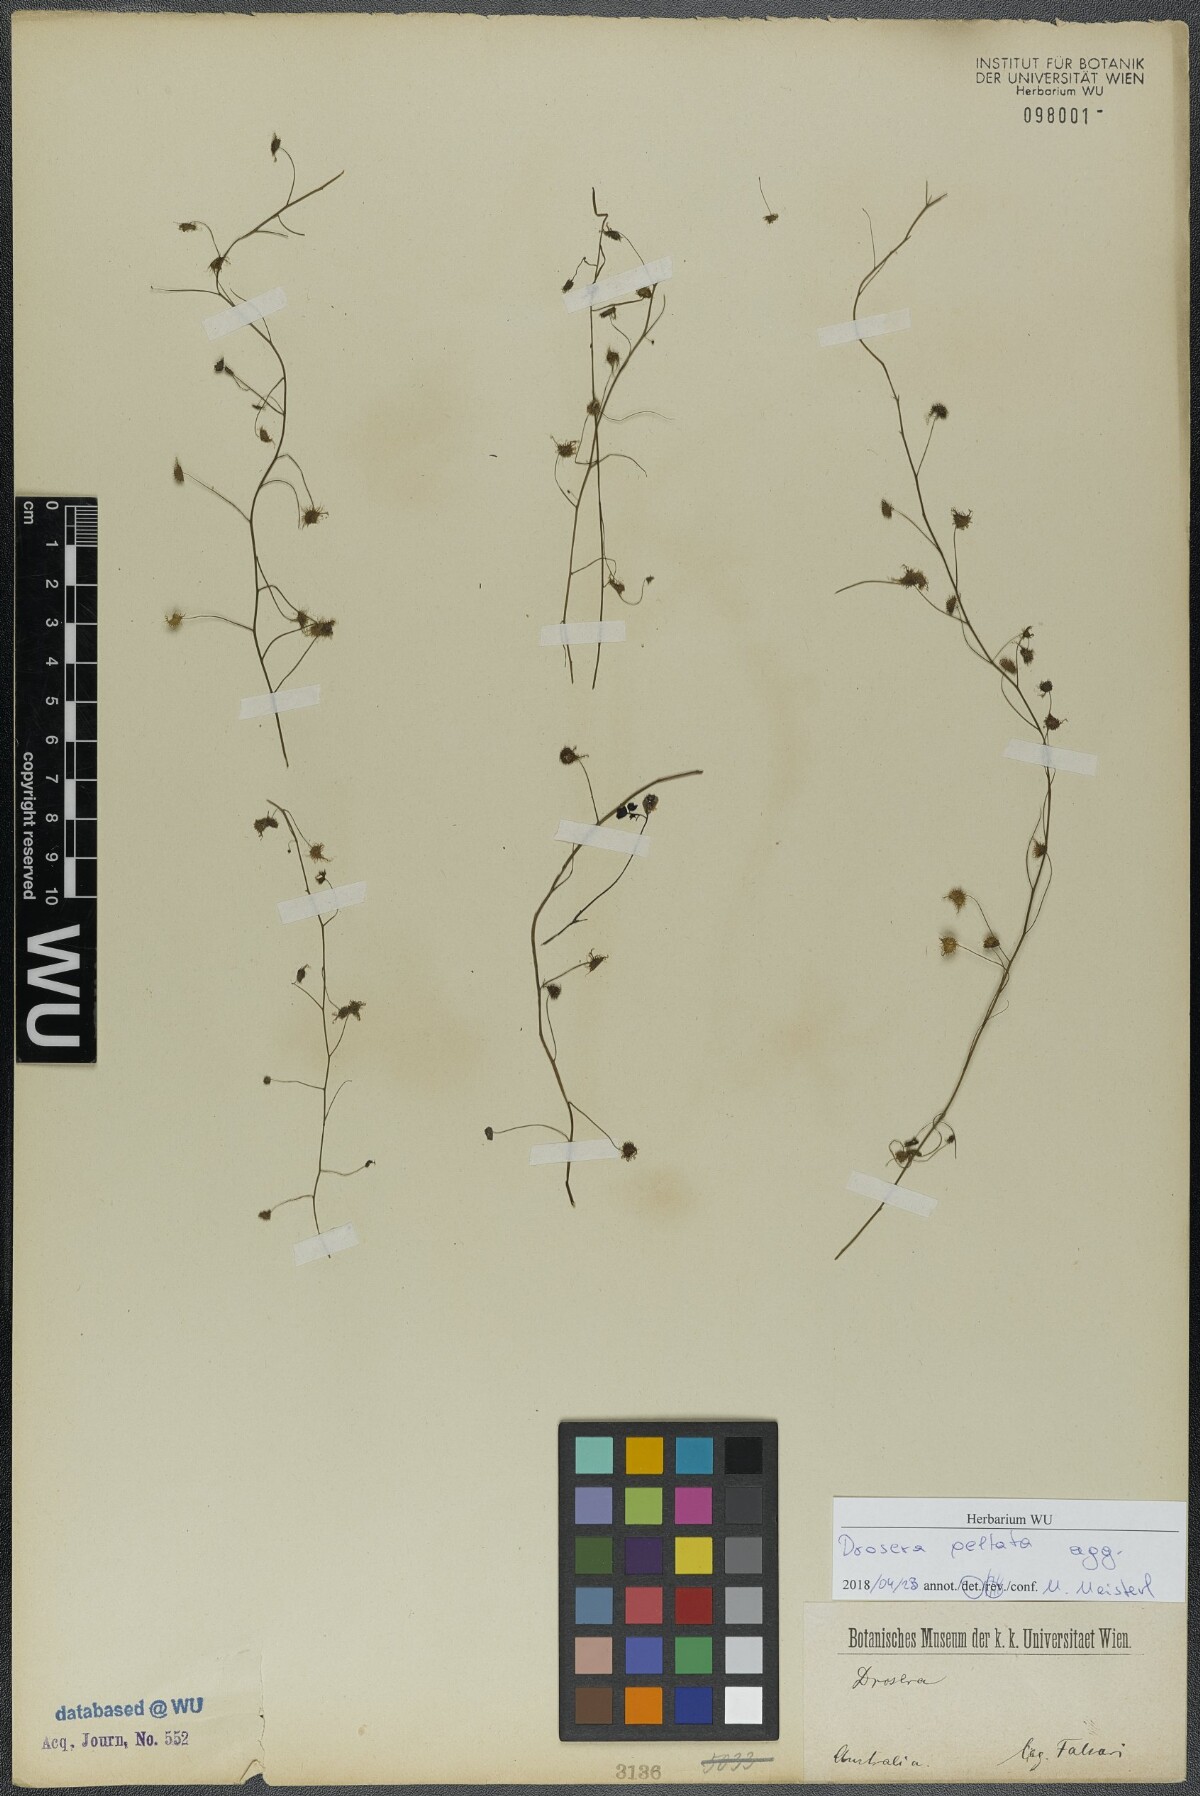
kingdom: Plantae
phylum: Tracheophyta
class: Magnoliopsida
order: Caryophyllales
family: Droseraceae
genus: Drosera
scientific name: Drosera peltata
